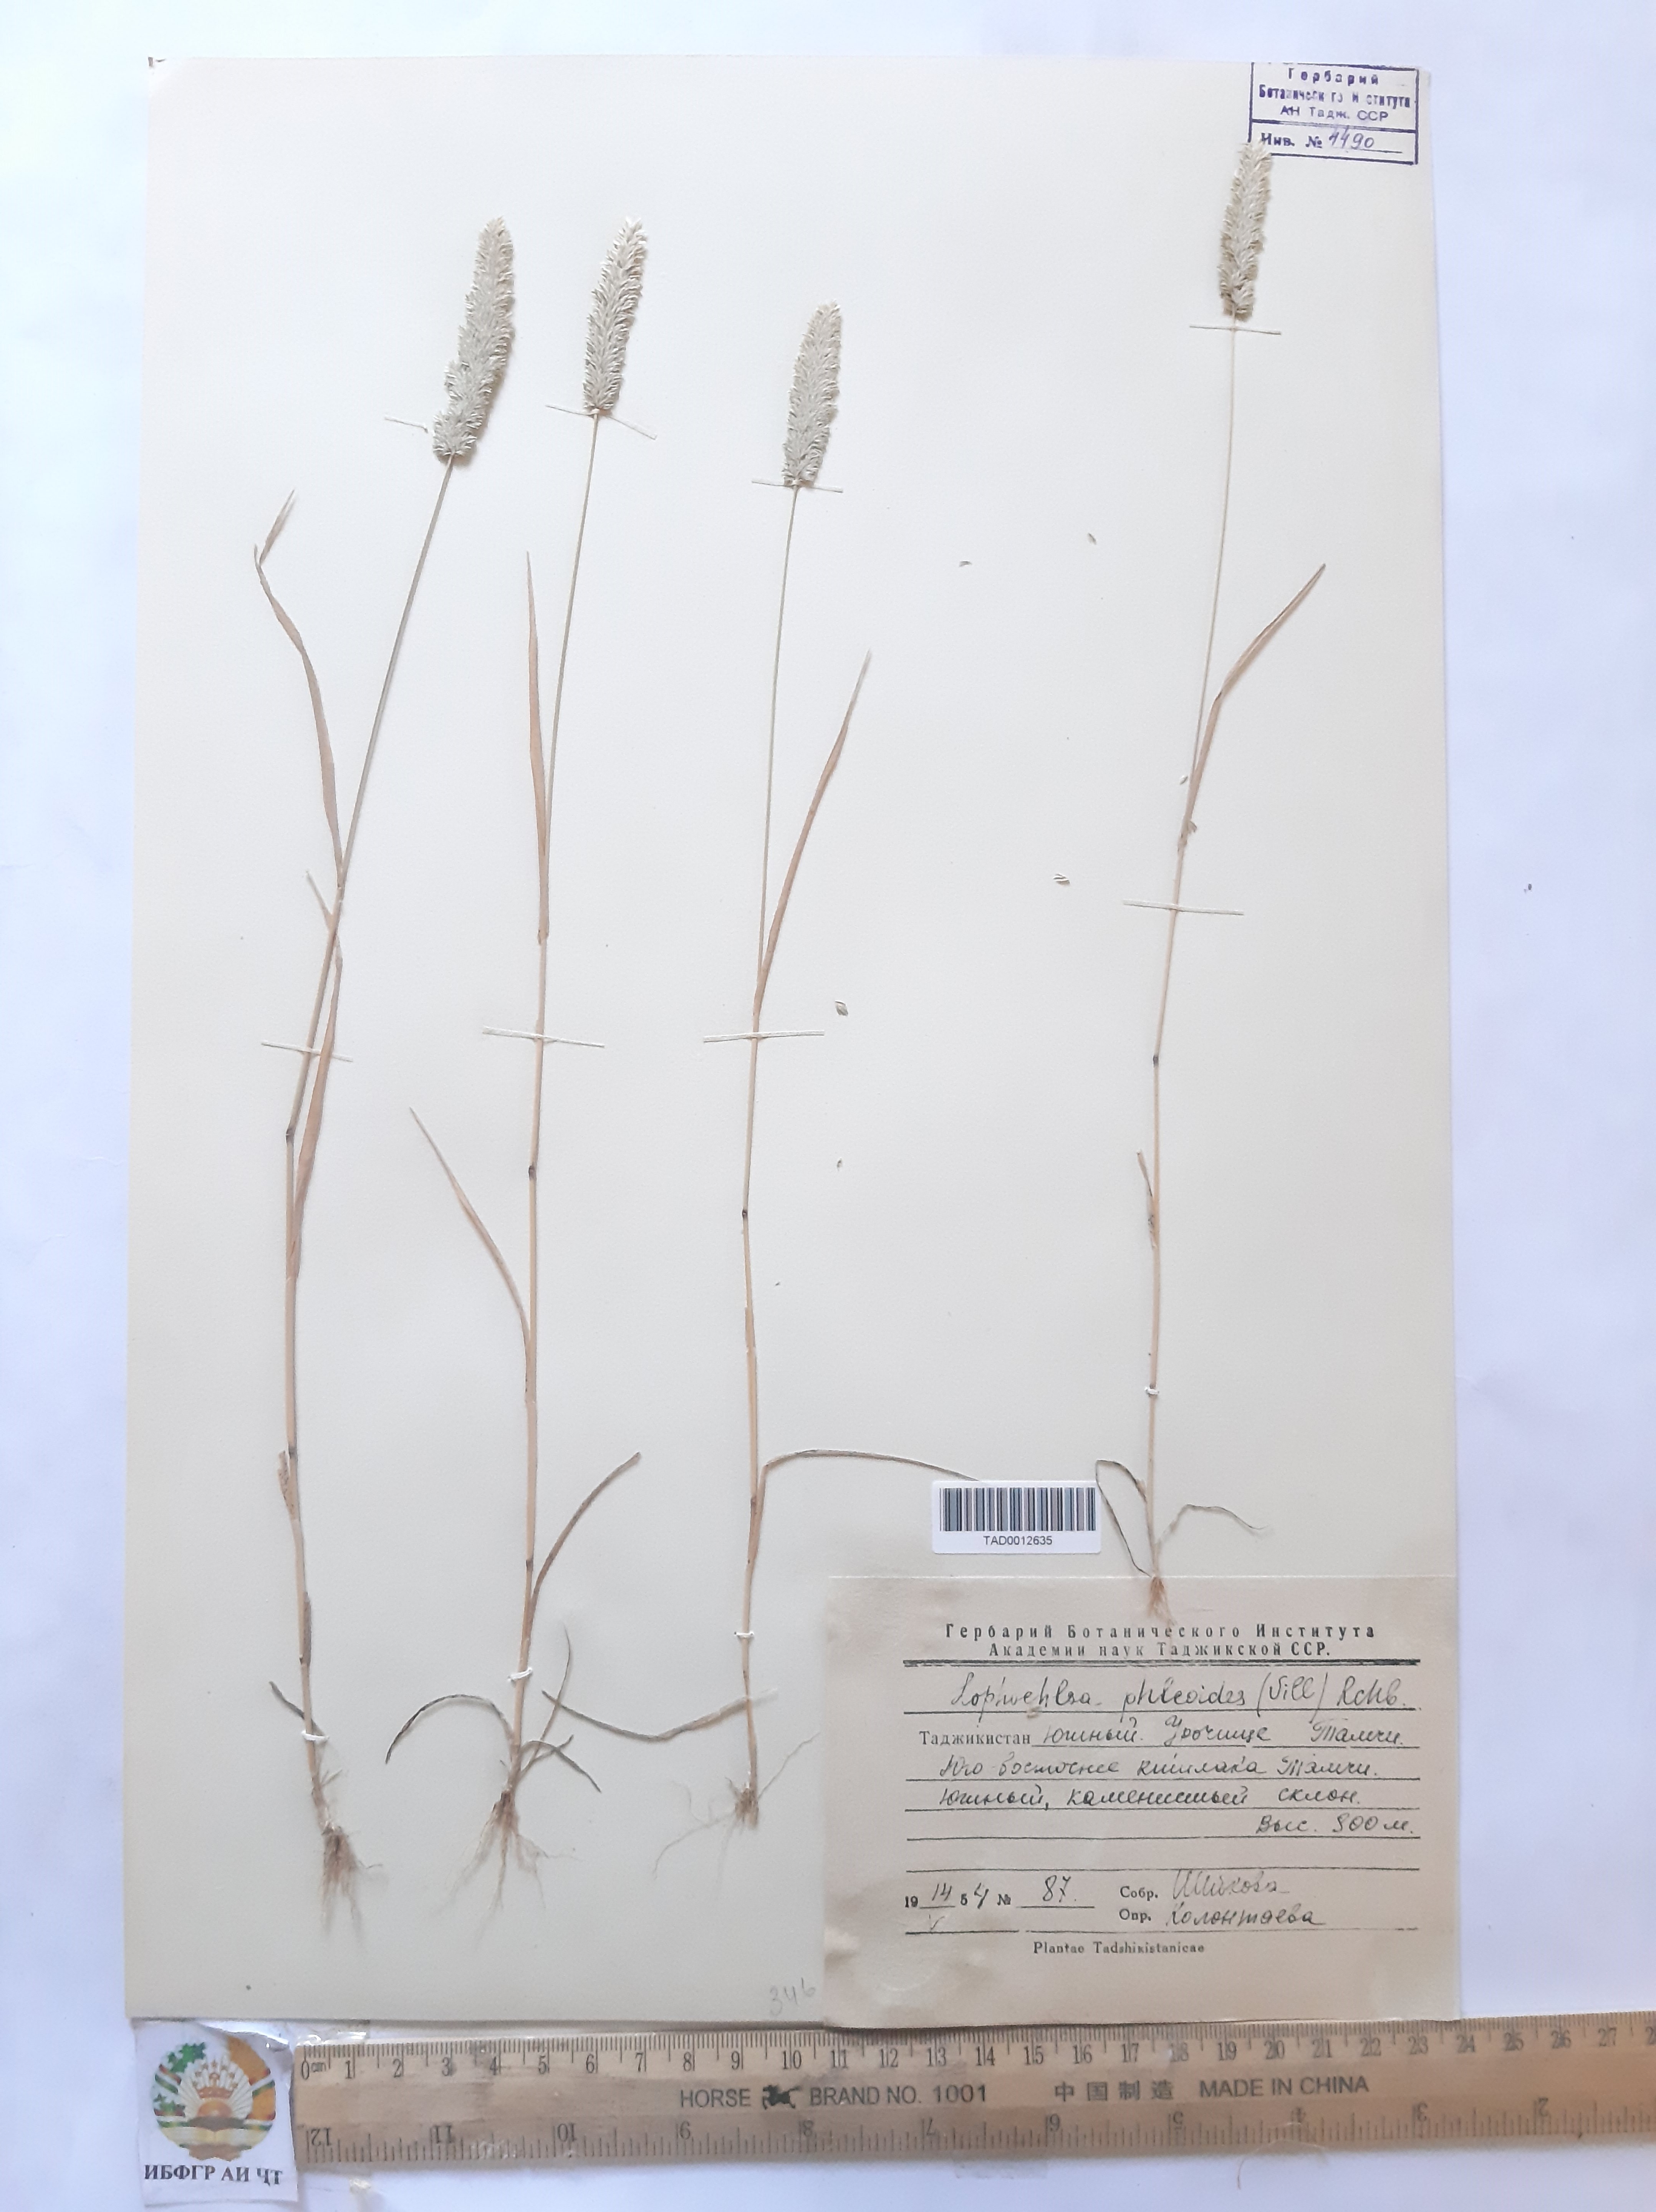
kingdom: Plantae
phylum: Tracheophyta
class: Liliopsida
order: Poales
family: Poaceae
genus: Rostraria
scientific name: Rostraria cristata
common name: Mediterranean hair-grass
